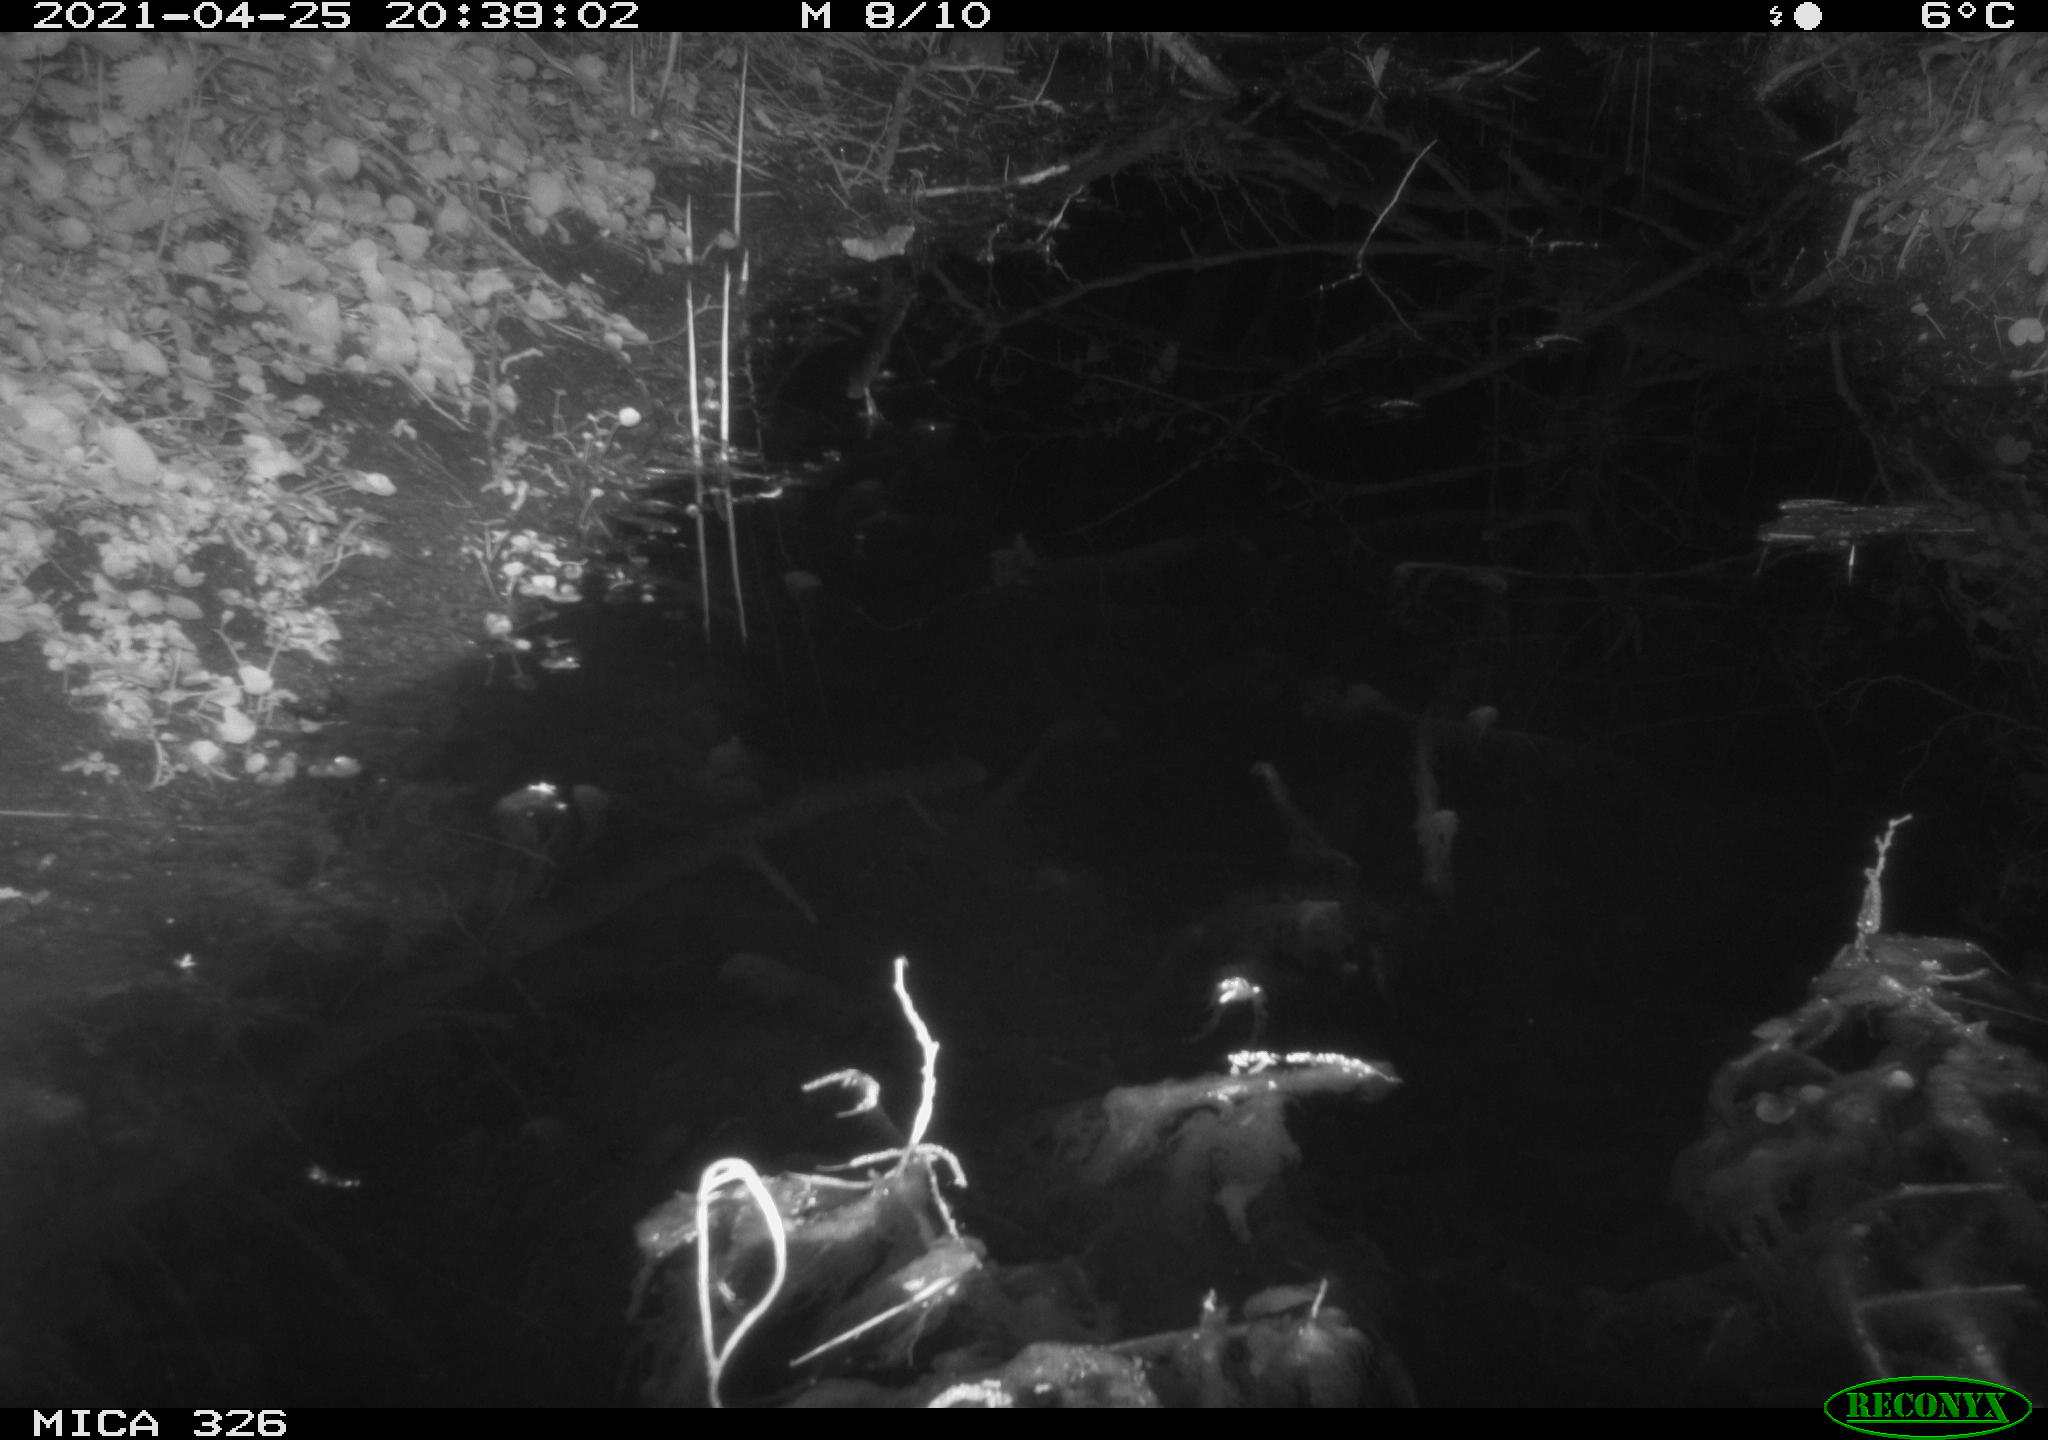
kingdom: Animalia
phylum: Chordata
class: Mammalia
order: Rodentia
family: Muridae
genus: Rattus
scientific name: Rattus norvegicus
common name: Brown rat
